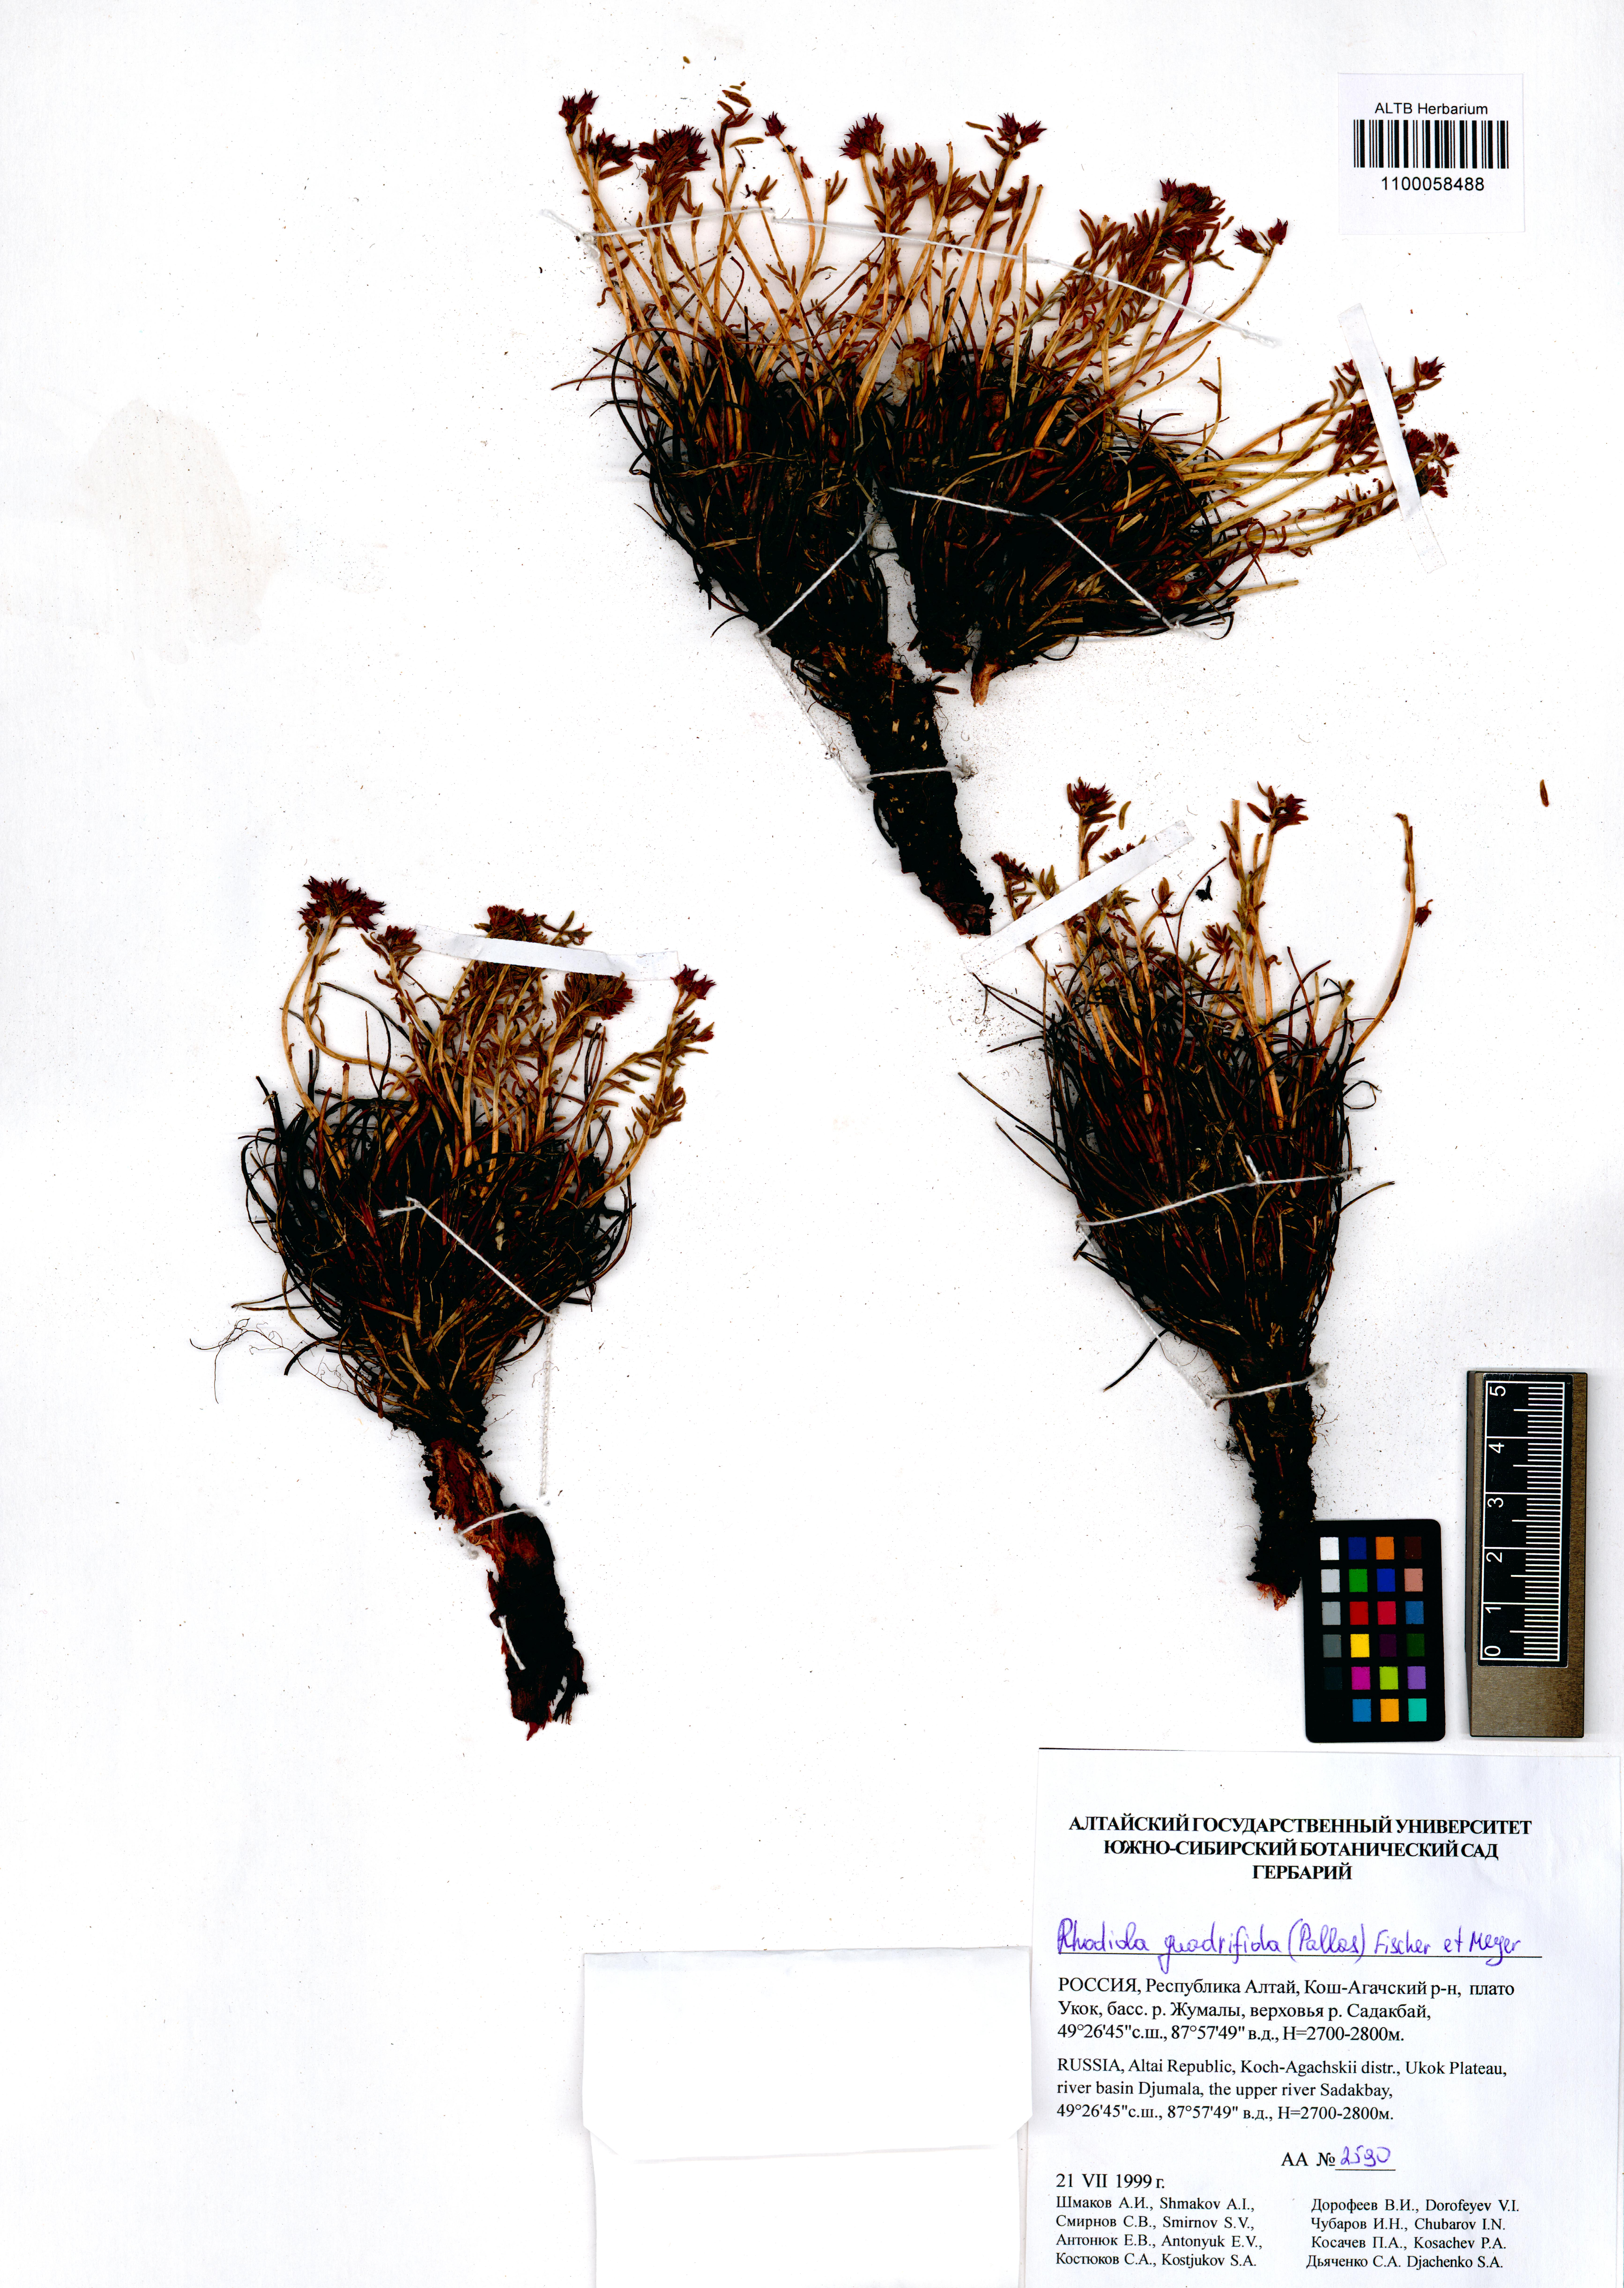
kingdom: Plantae
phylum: Tracheophyta
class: Magnoliopsida
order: Saxifragales
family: Crassulaceae
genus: Rhodiola
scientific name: Rhodiola quadrifida
